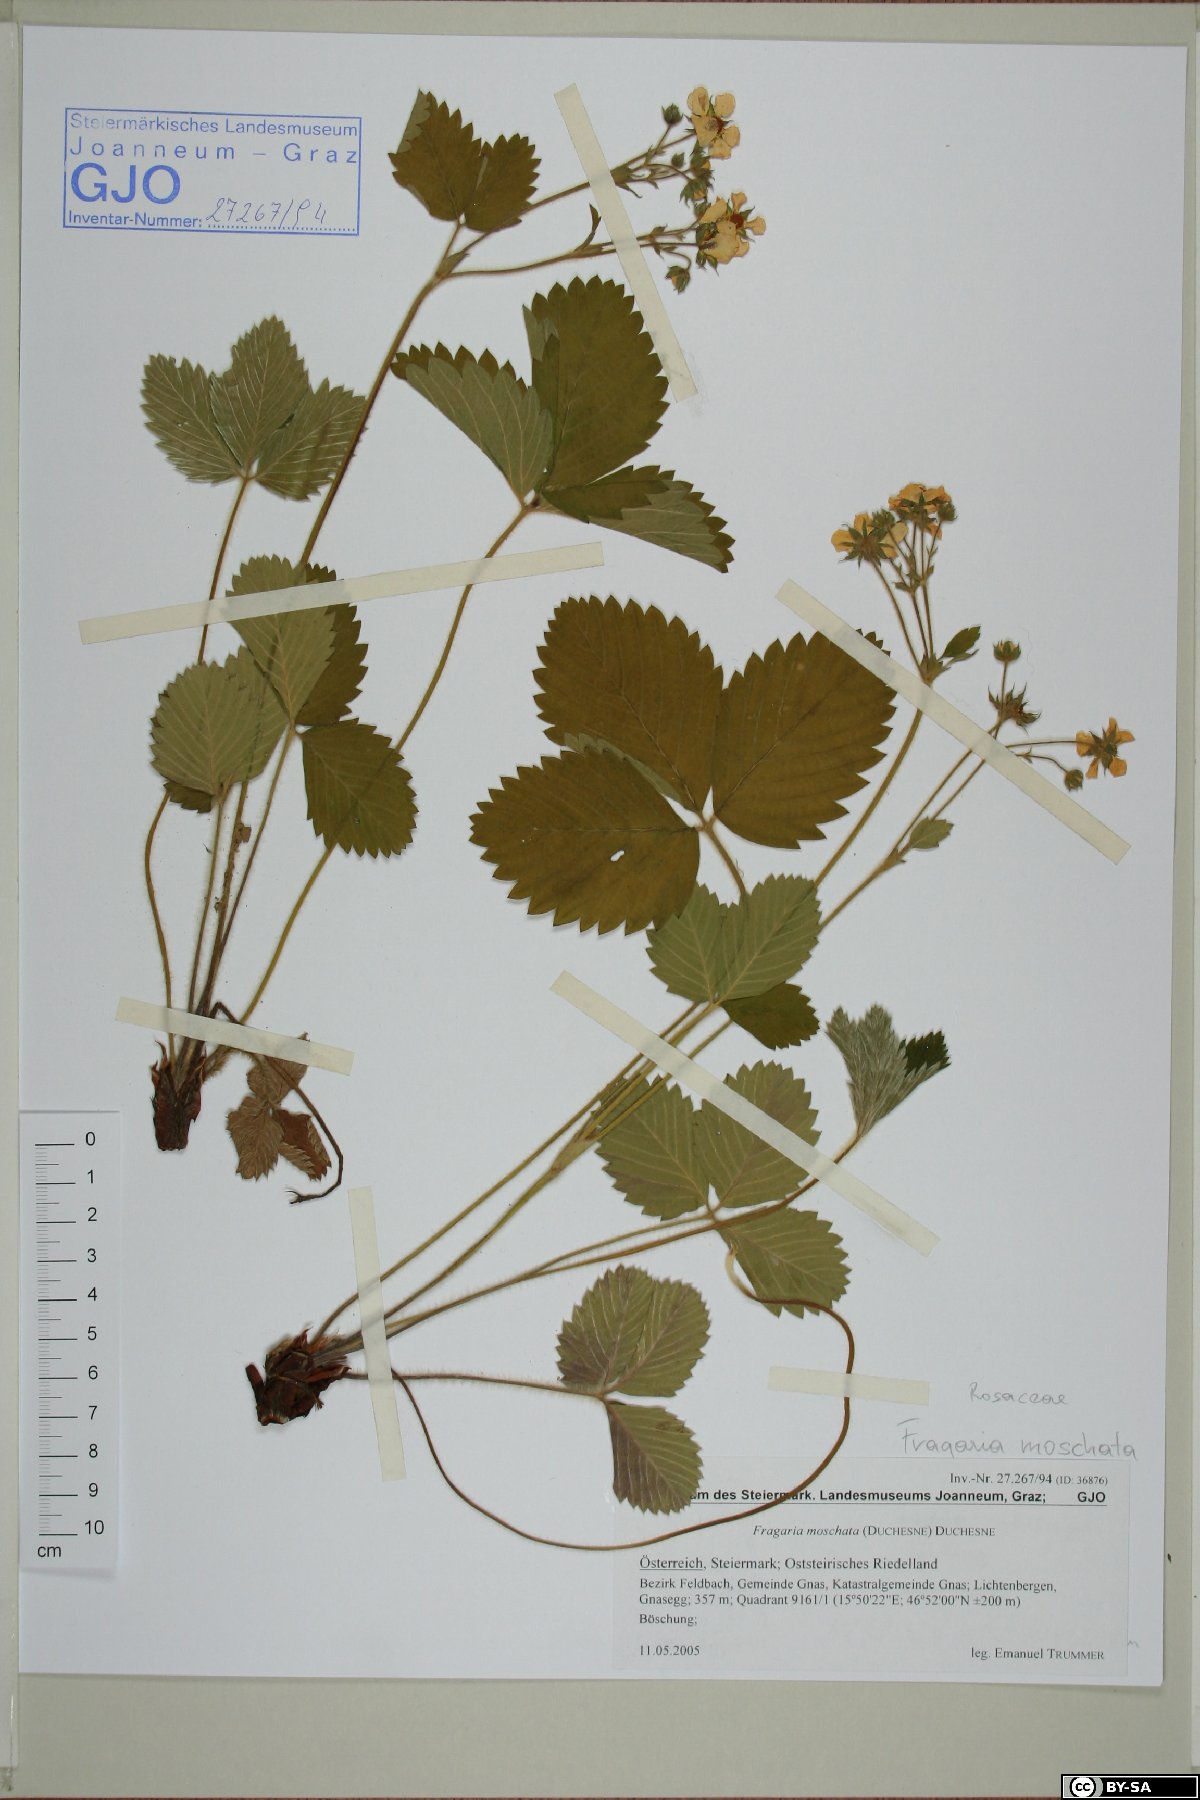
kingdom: Plantae
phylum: Tracheophyta
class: Magnoliopsida
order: Rosales
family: Rosaceae
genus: Fragaria
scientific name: Fragaria moschata
